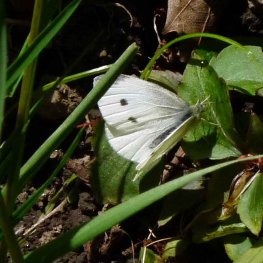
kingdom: Animalia
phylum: Arthropoda
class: Insecta
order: Lepidoptera
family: Pieridae
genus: Pieris
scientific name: Pieris rapae
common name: Cabbage White
